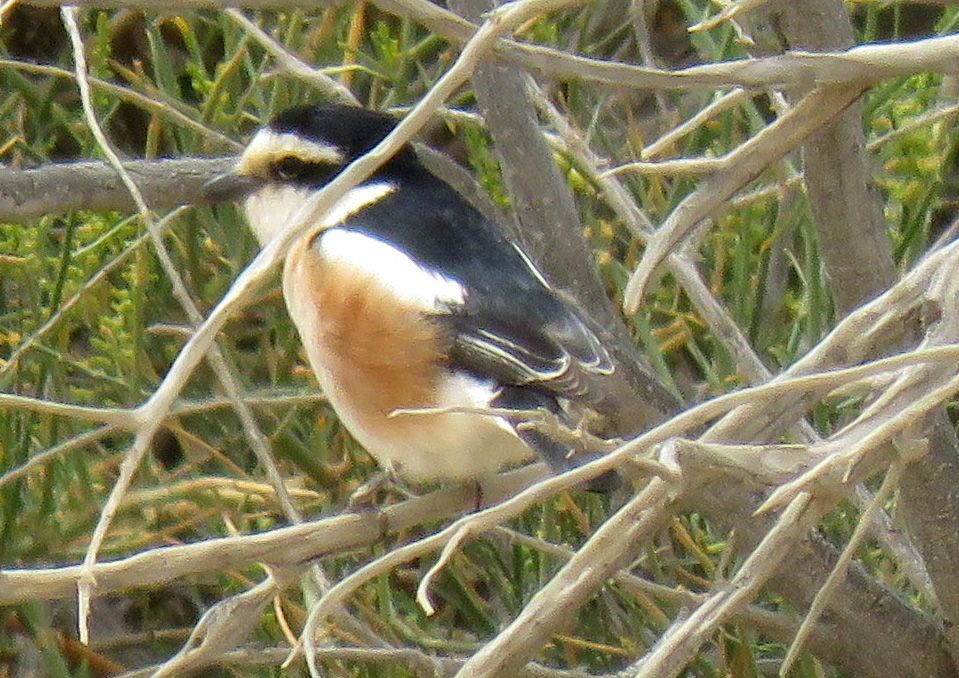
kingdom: Animalia
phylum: Chordata
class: Aves
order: Passeriformes
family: Laniidae
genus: Lanius
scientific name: Lanius nubicus
